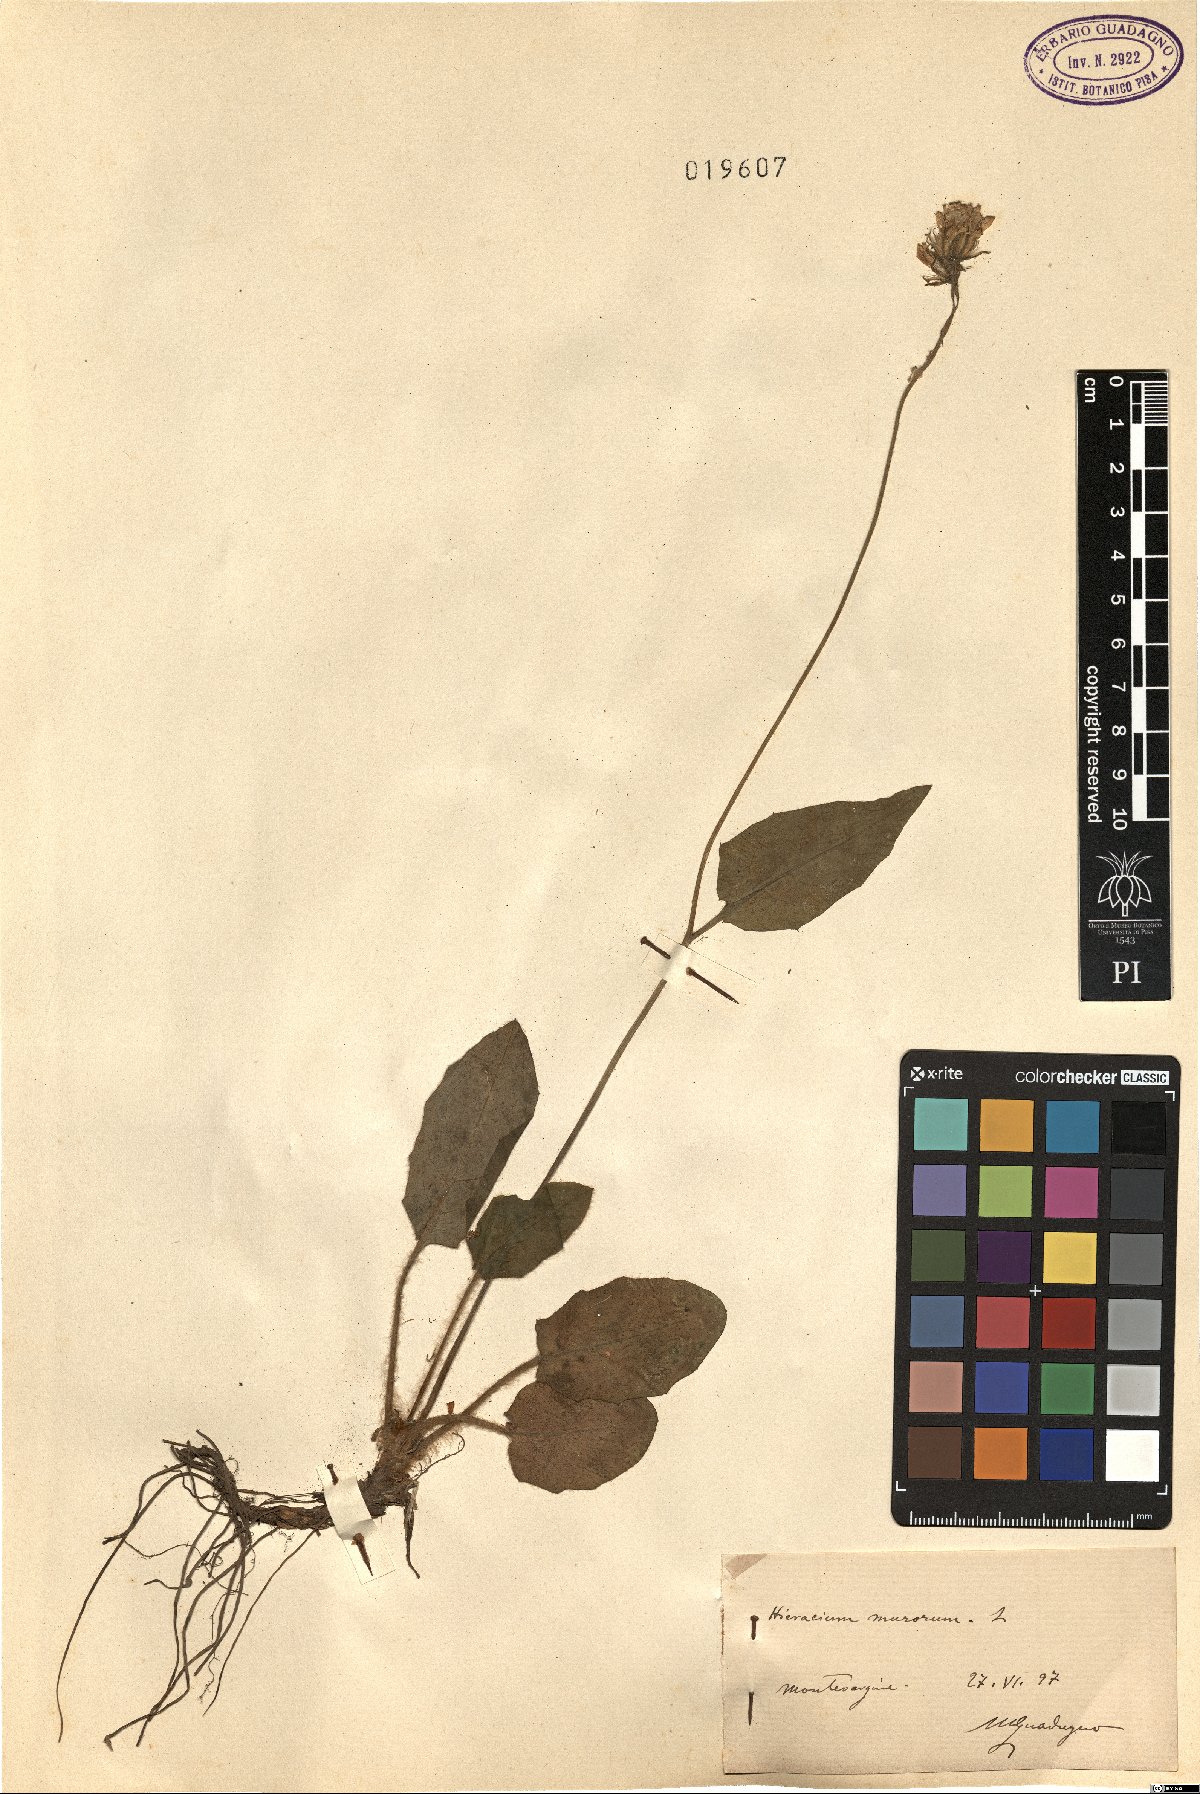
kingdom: Plantae
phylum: Tracheophyta
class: Magnoliopsida
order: Asterales
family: Asteraceae
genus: Hieracium
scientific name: Hieracium murorum
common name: Wall hawkweed
